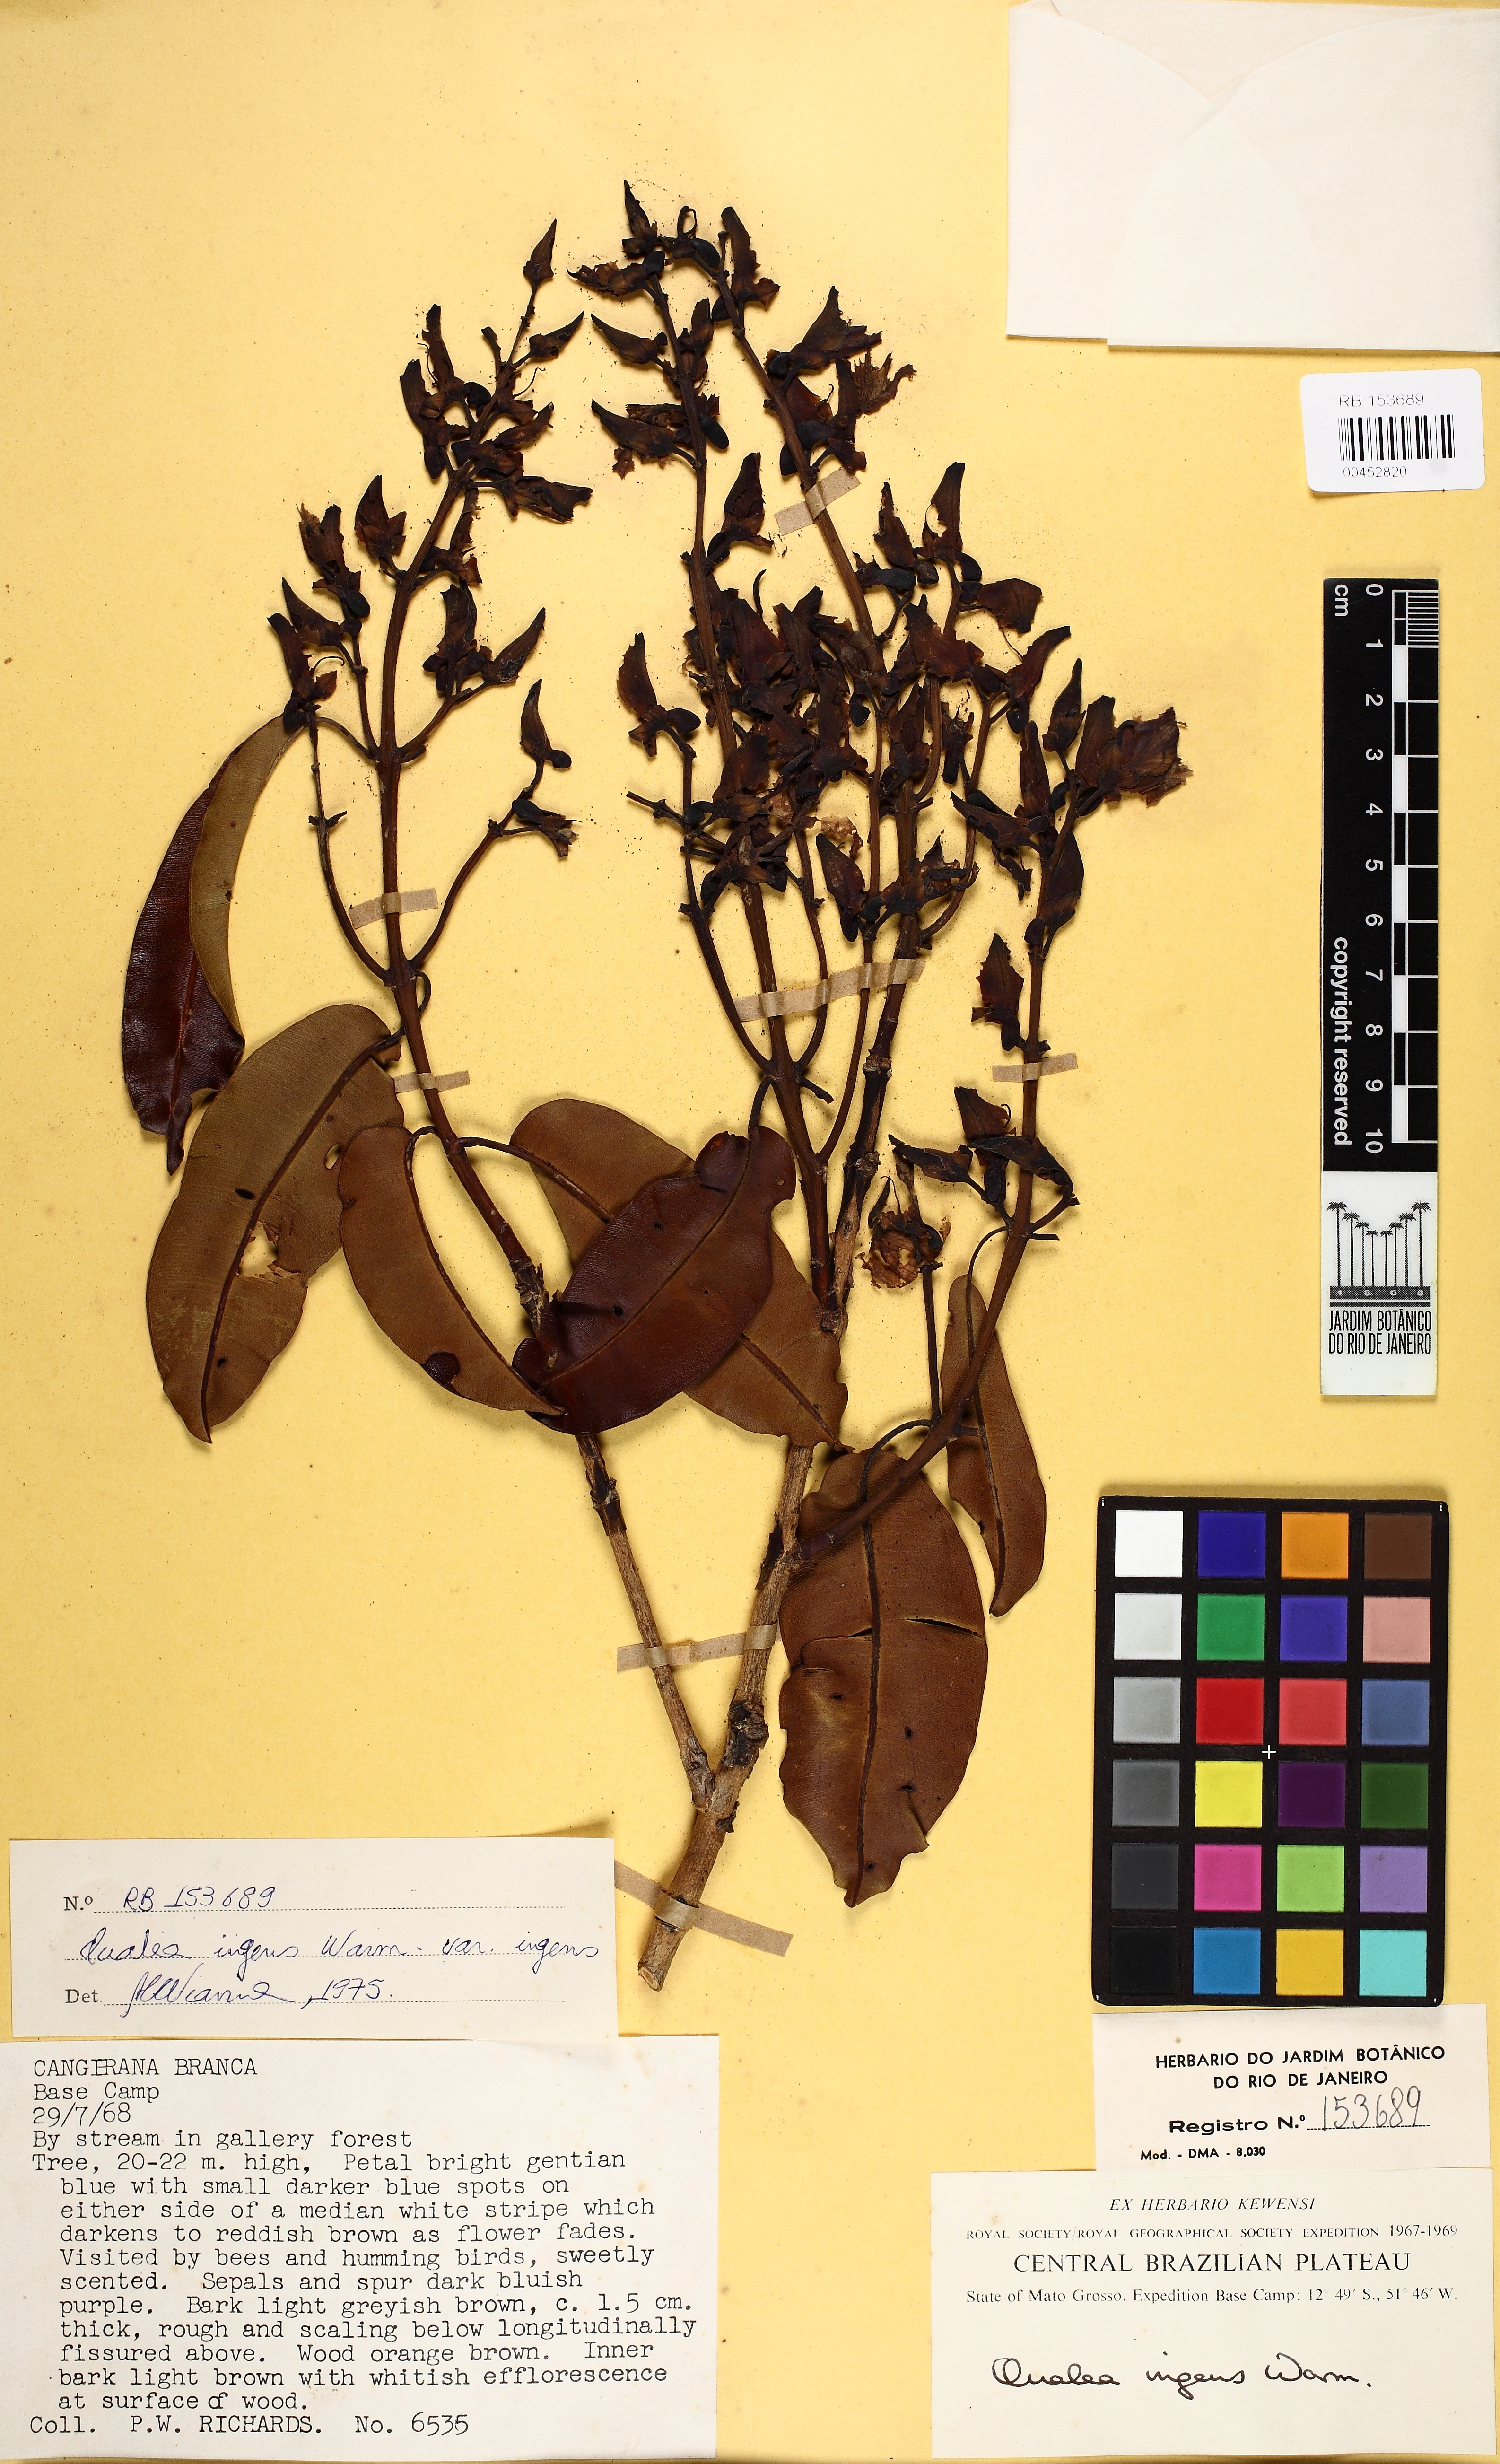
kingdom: Plantae
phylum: Tracheophyta
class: Magnoliopsida
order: Myrtales
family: Vochysiaceae
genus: Qualea
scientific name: Qualea ingens
